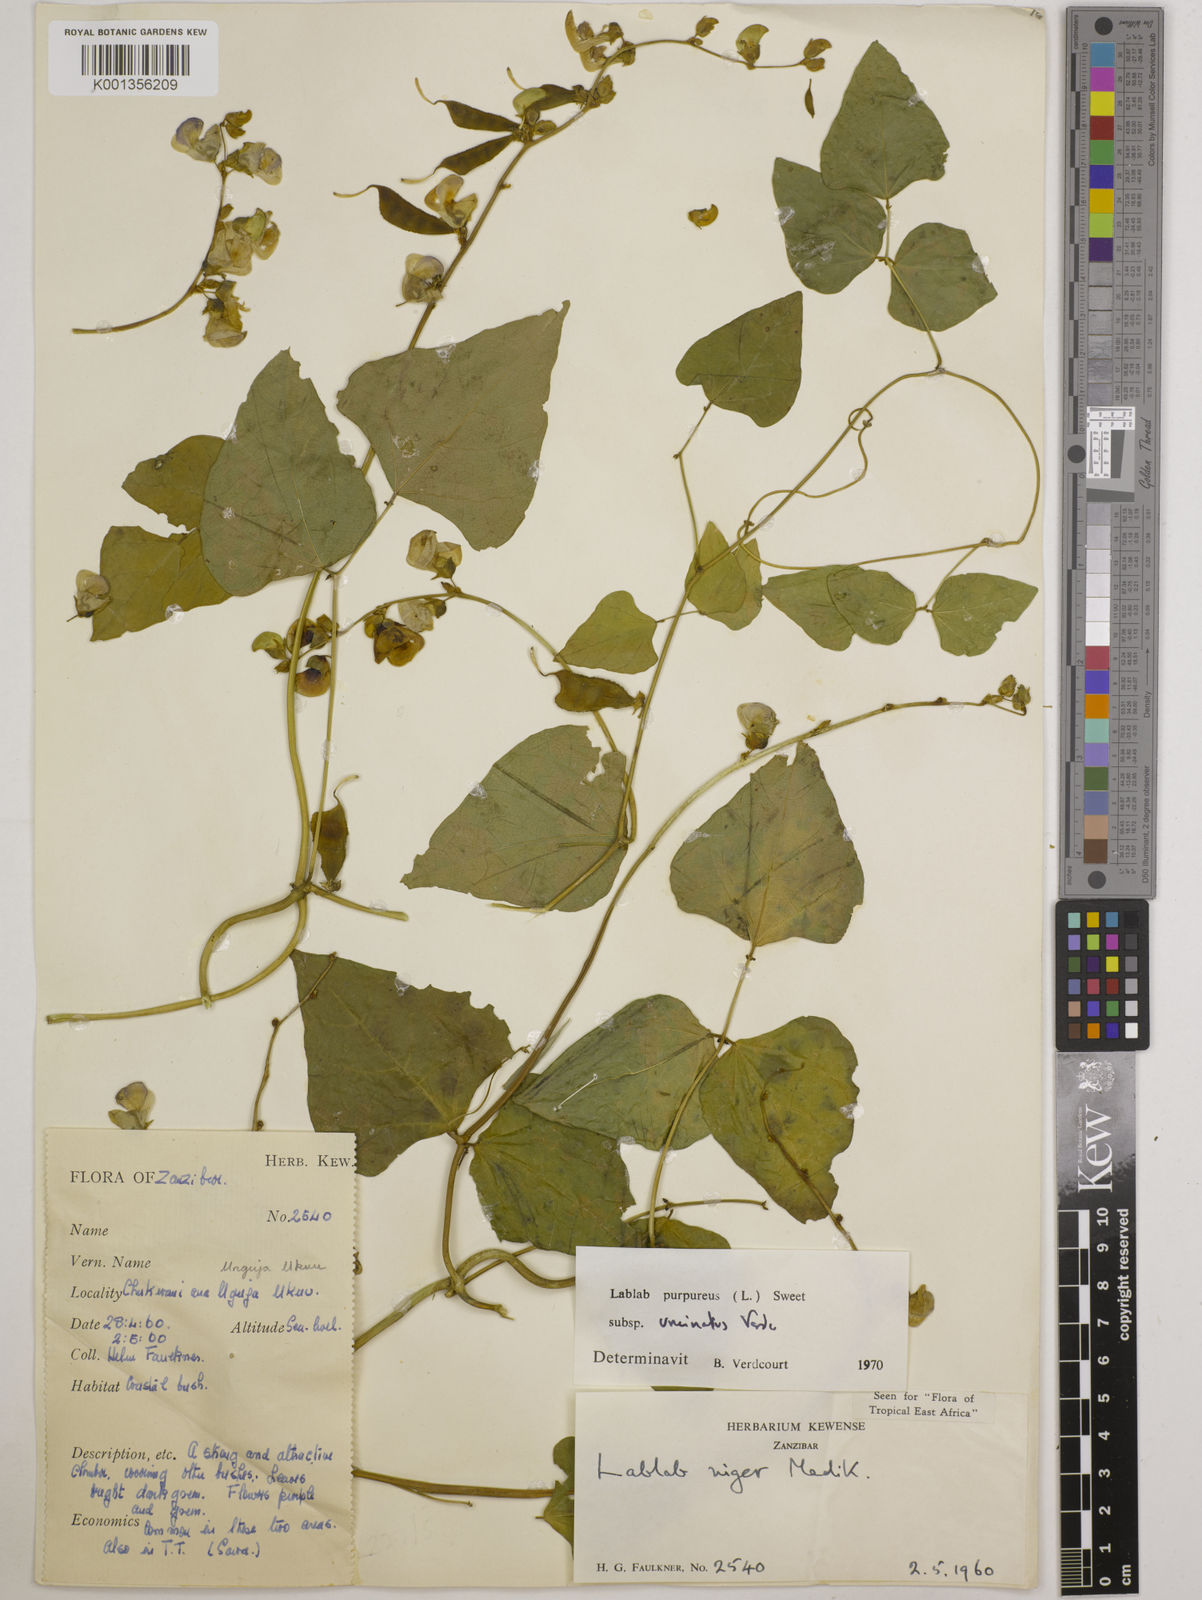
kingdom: Plantae
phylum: Tracheophyta
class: Magnoliopsida
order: Fabales
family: Fabaceae
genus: Lablab
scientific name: Lablab purpureus
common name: Lablab-bean
